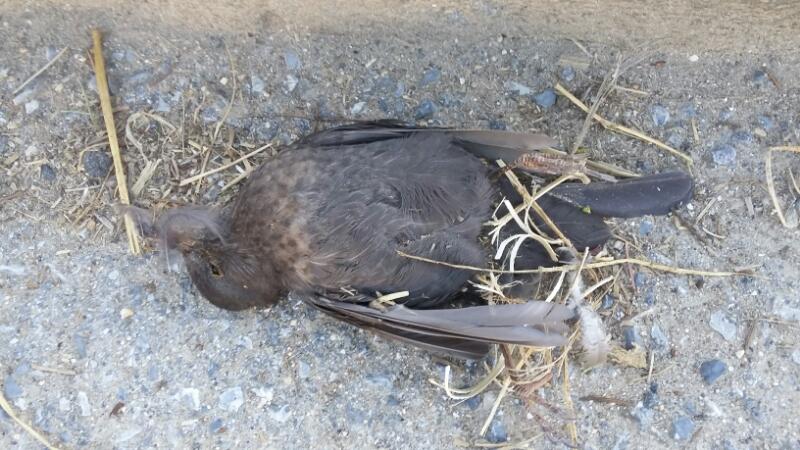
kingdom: Animalia
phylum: Chordata
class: Aves
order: Passeriformes
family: Turdidae
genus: Turdus
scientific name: Turdus merula
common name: Common blackbird
